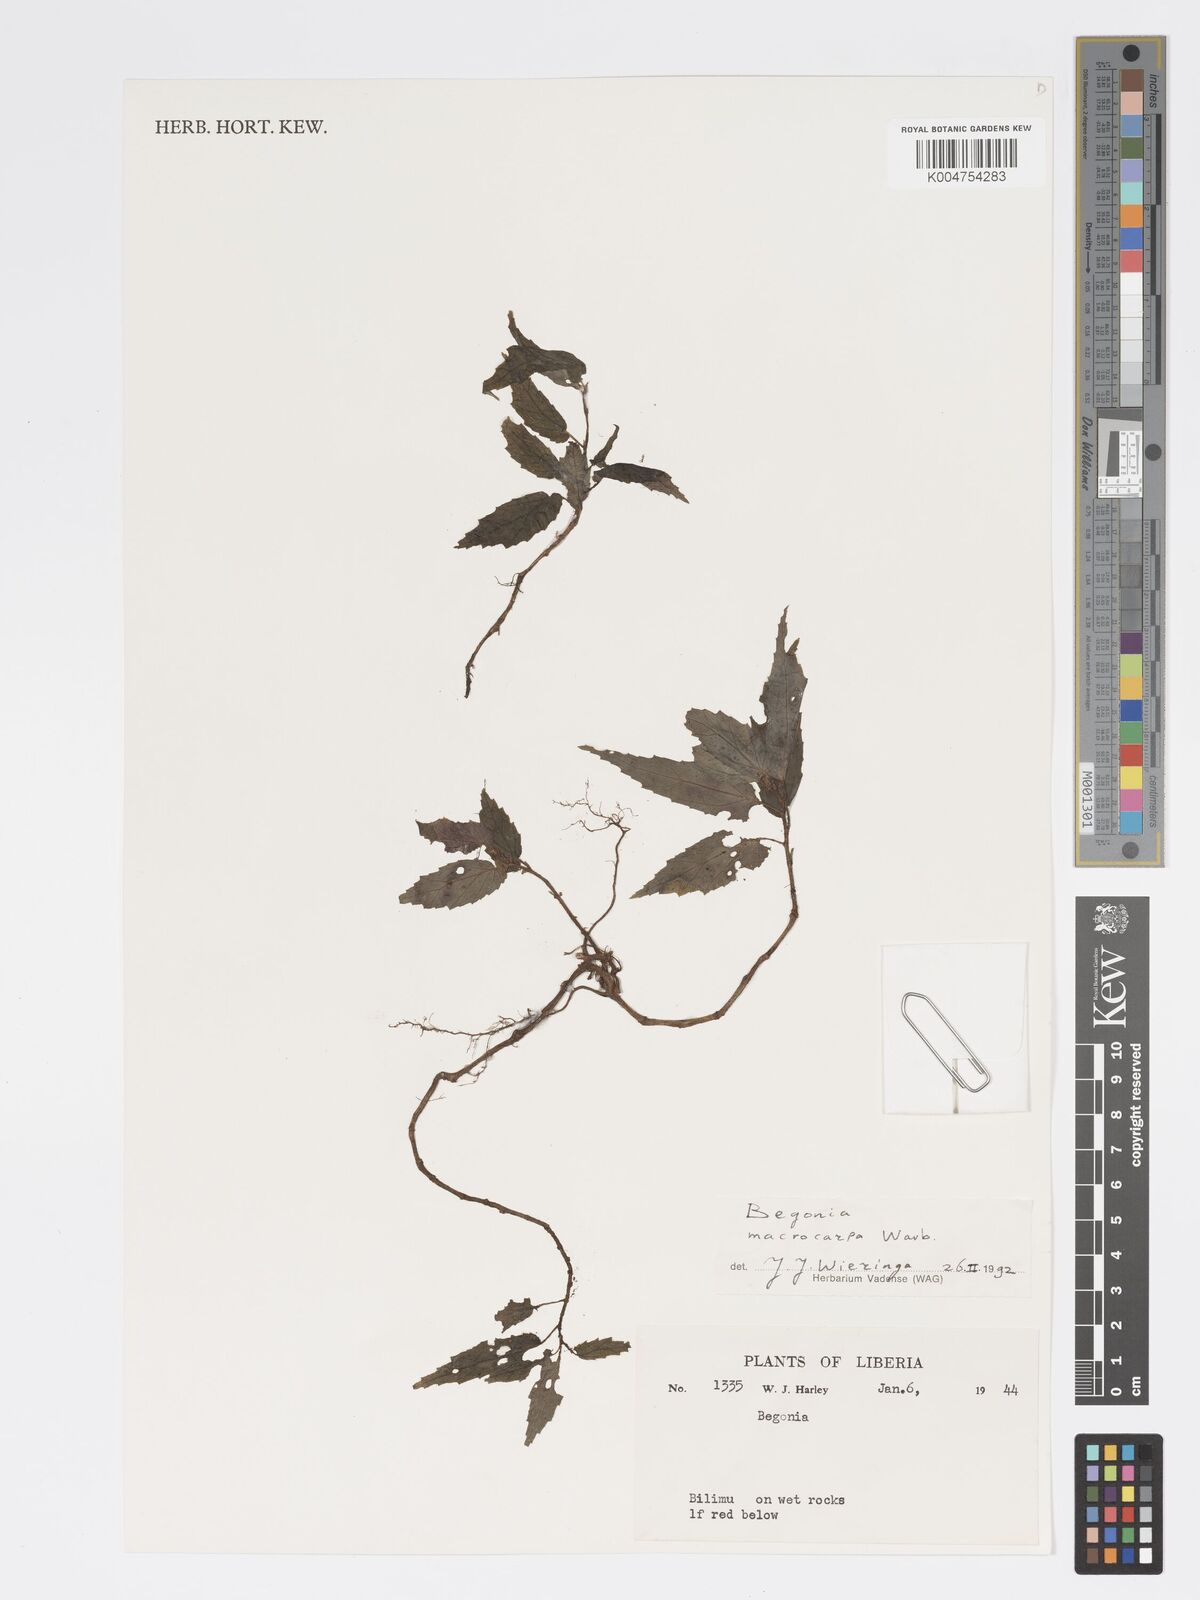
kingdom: Plantae
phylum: Tracheophyta
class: Magnoliopsida
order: Cucurbitales
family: Begoniaceae
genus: Begonia
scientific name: Begonia macrocarpa
